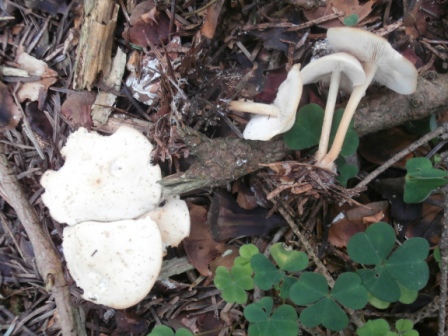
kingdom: Fungi
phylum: Basidiomycota
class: Agaricomycetes
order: Agaricales
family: Omphalotaceae
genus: Gymnopus
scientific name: Gymnopus aquosus
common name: bleg fladhat
